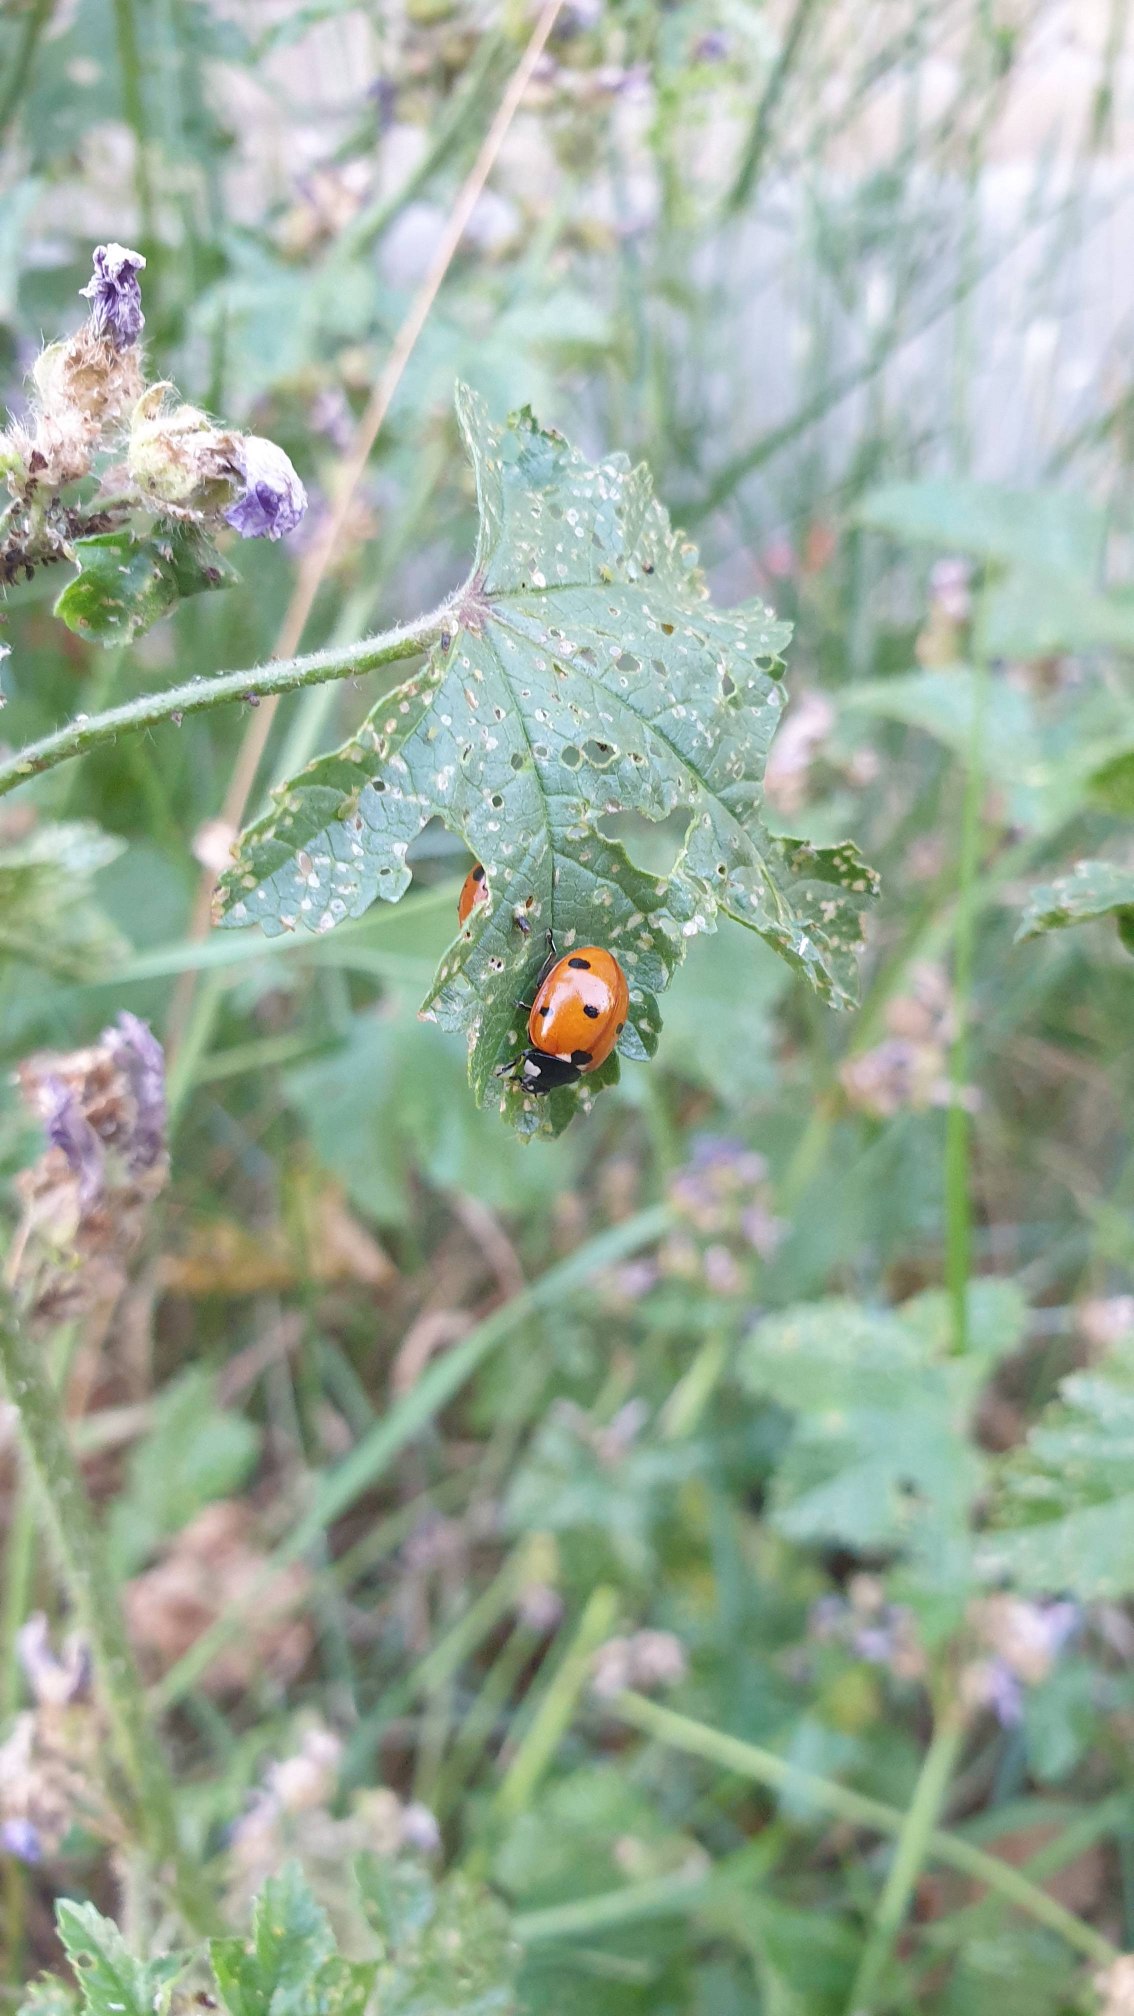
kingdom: Animalia
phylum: Arthropoda
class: Insecta
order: Coleoptera
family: Coccinellidae
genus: Coccinella
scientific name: Coccinella septempunctata
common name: Syvplettet mariehøne
